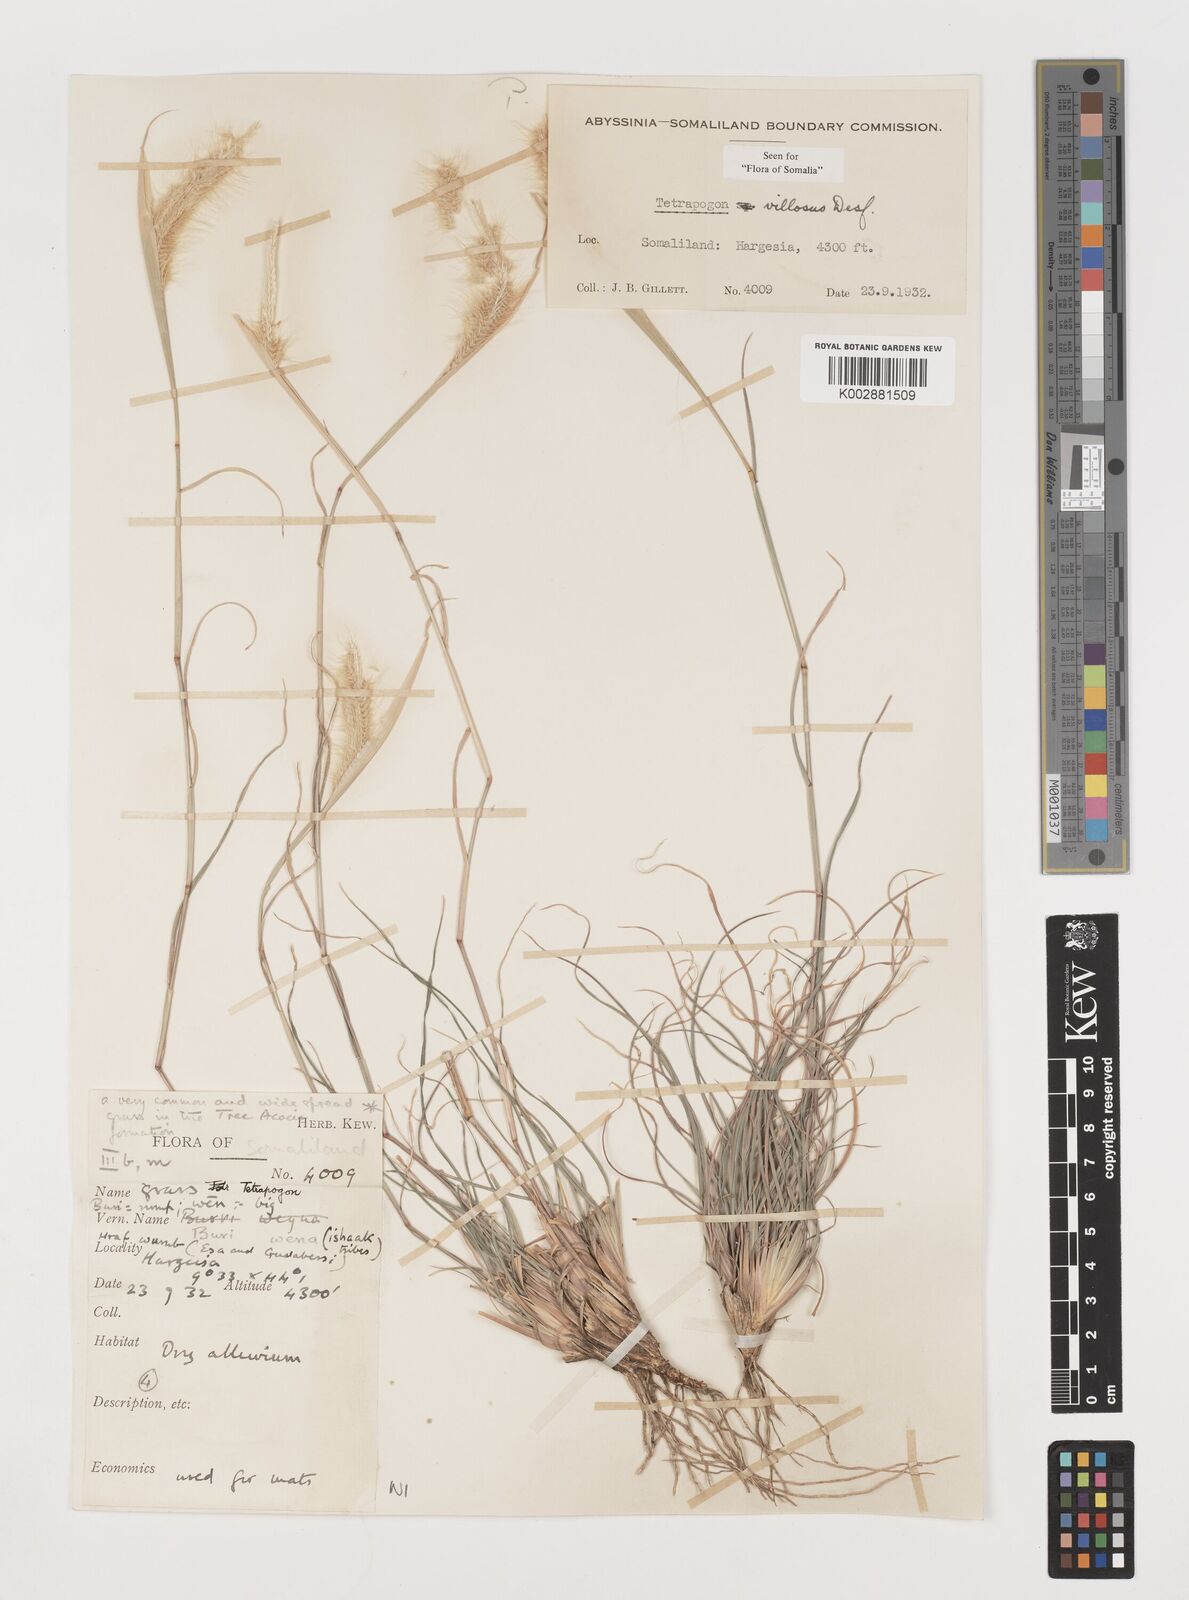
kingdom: Plantae
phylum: Tracheophyta
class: Liliopsida
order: Poales
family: Poaceae
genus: Tetrapogon
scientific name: Tetrapogon villosus
